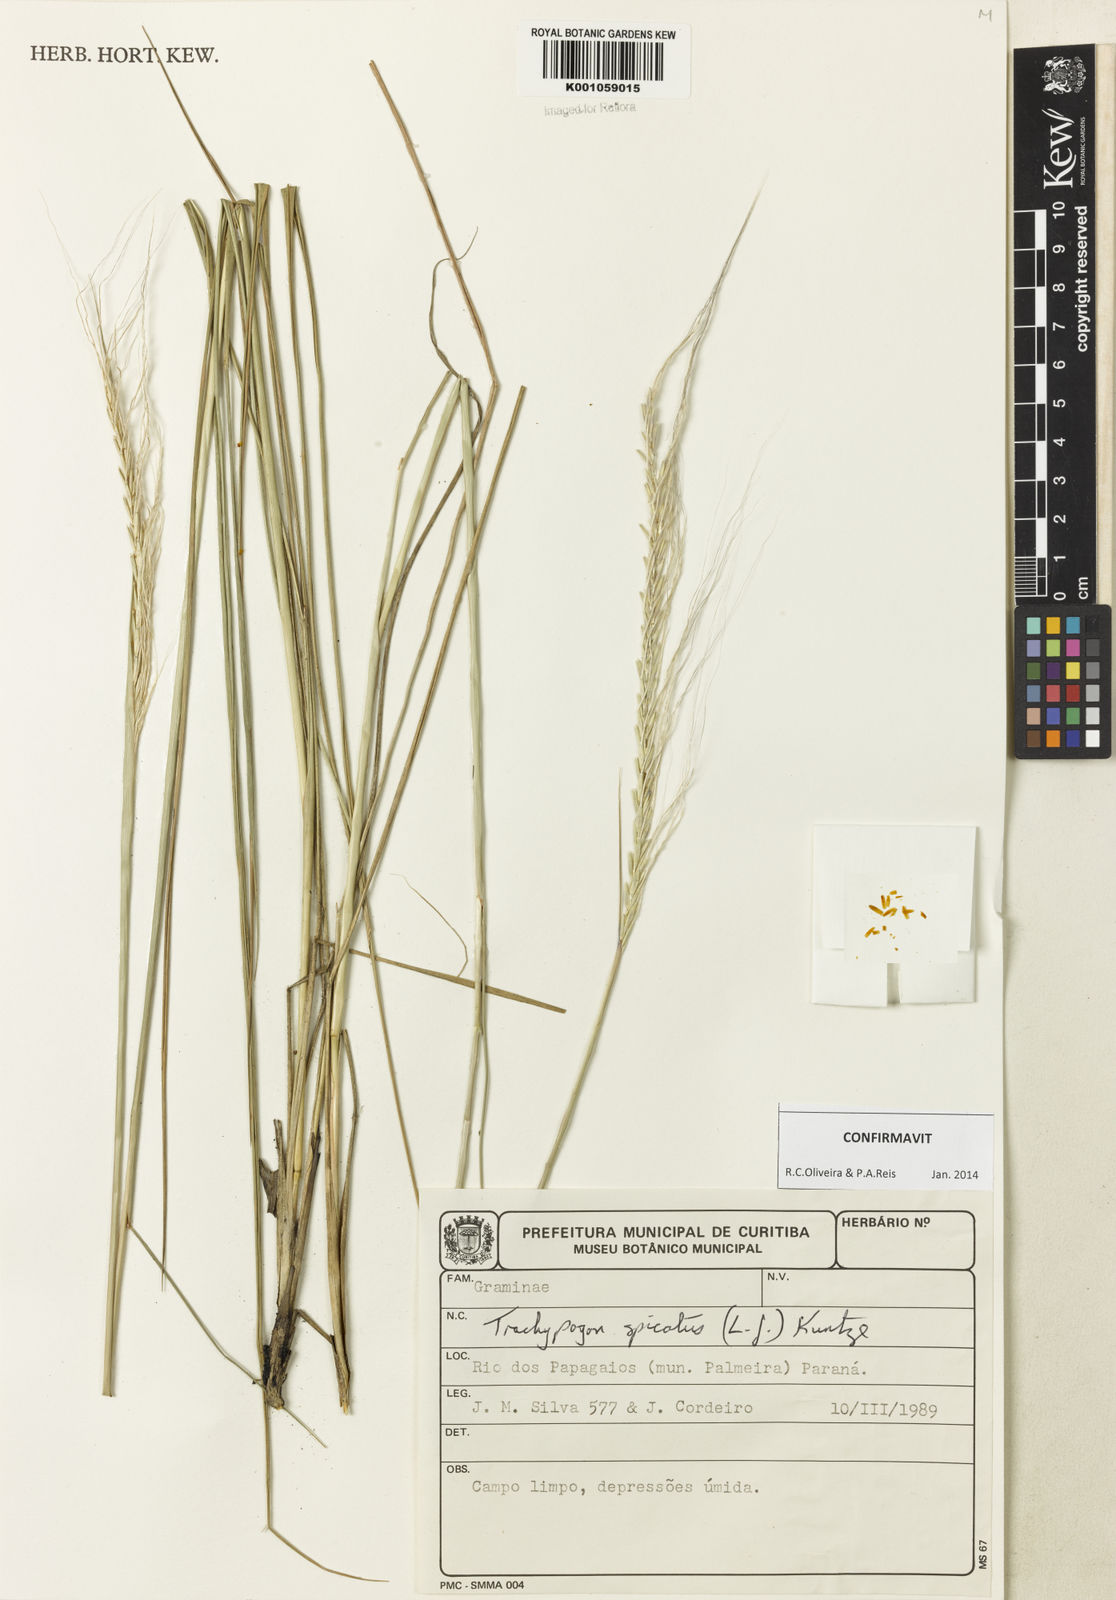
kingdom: Plantae
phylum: Tracheophyta
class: Liliopsida
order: Poales
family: Poaceae
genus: Trachypogon
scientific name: Trachypogon spicatus
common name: Crinkle-awn
